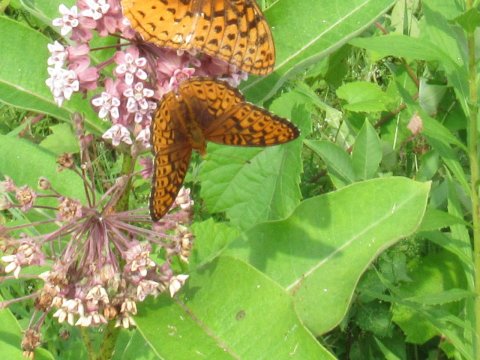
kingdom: Animalia
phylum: Arthropoda
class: Insecta
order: Lepidoptera
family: Nymphalidae
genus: Speyeria
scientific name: Speyeria atlantis
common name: Atlantis Fritillary
